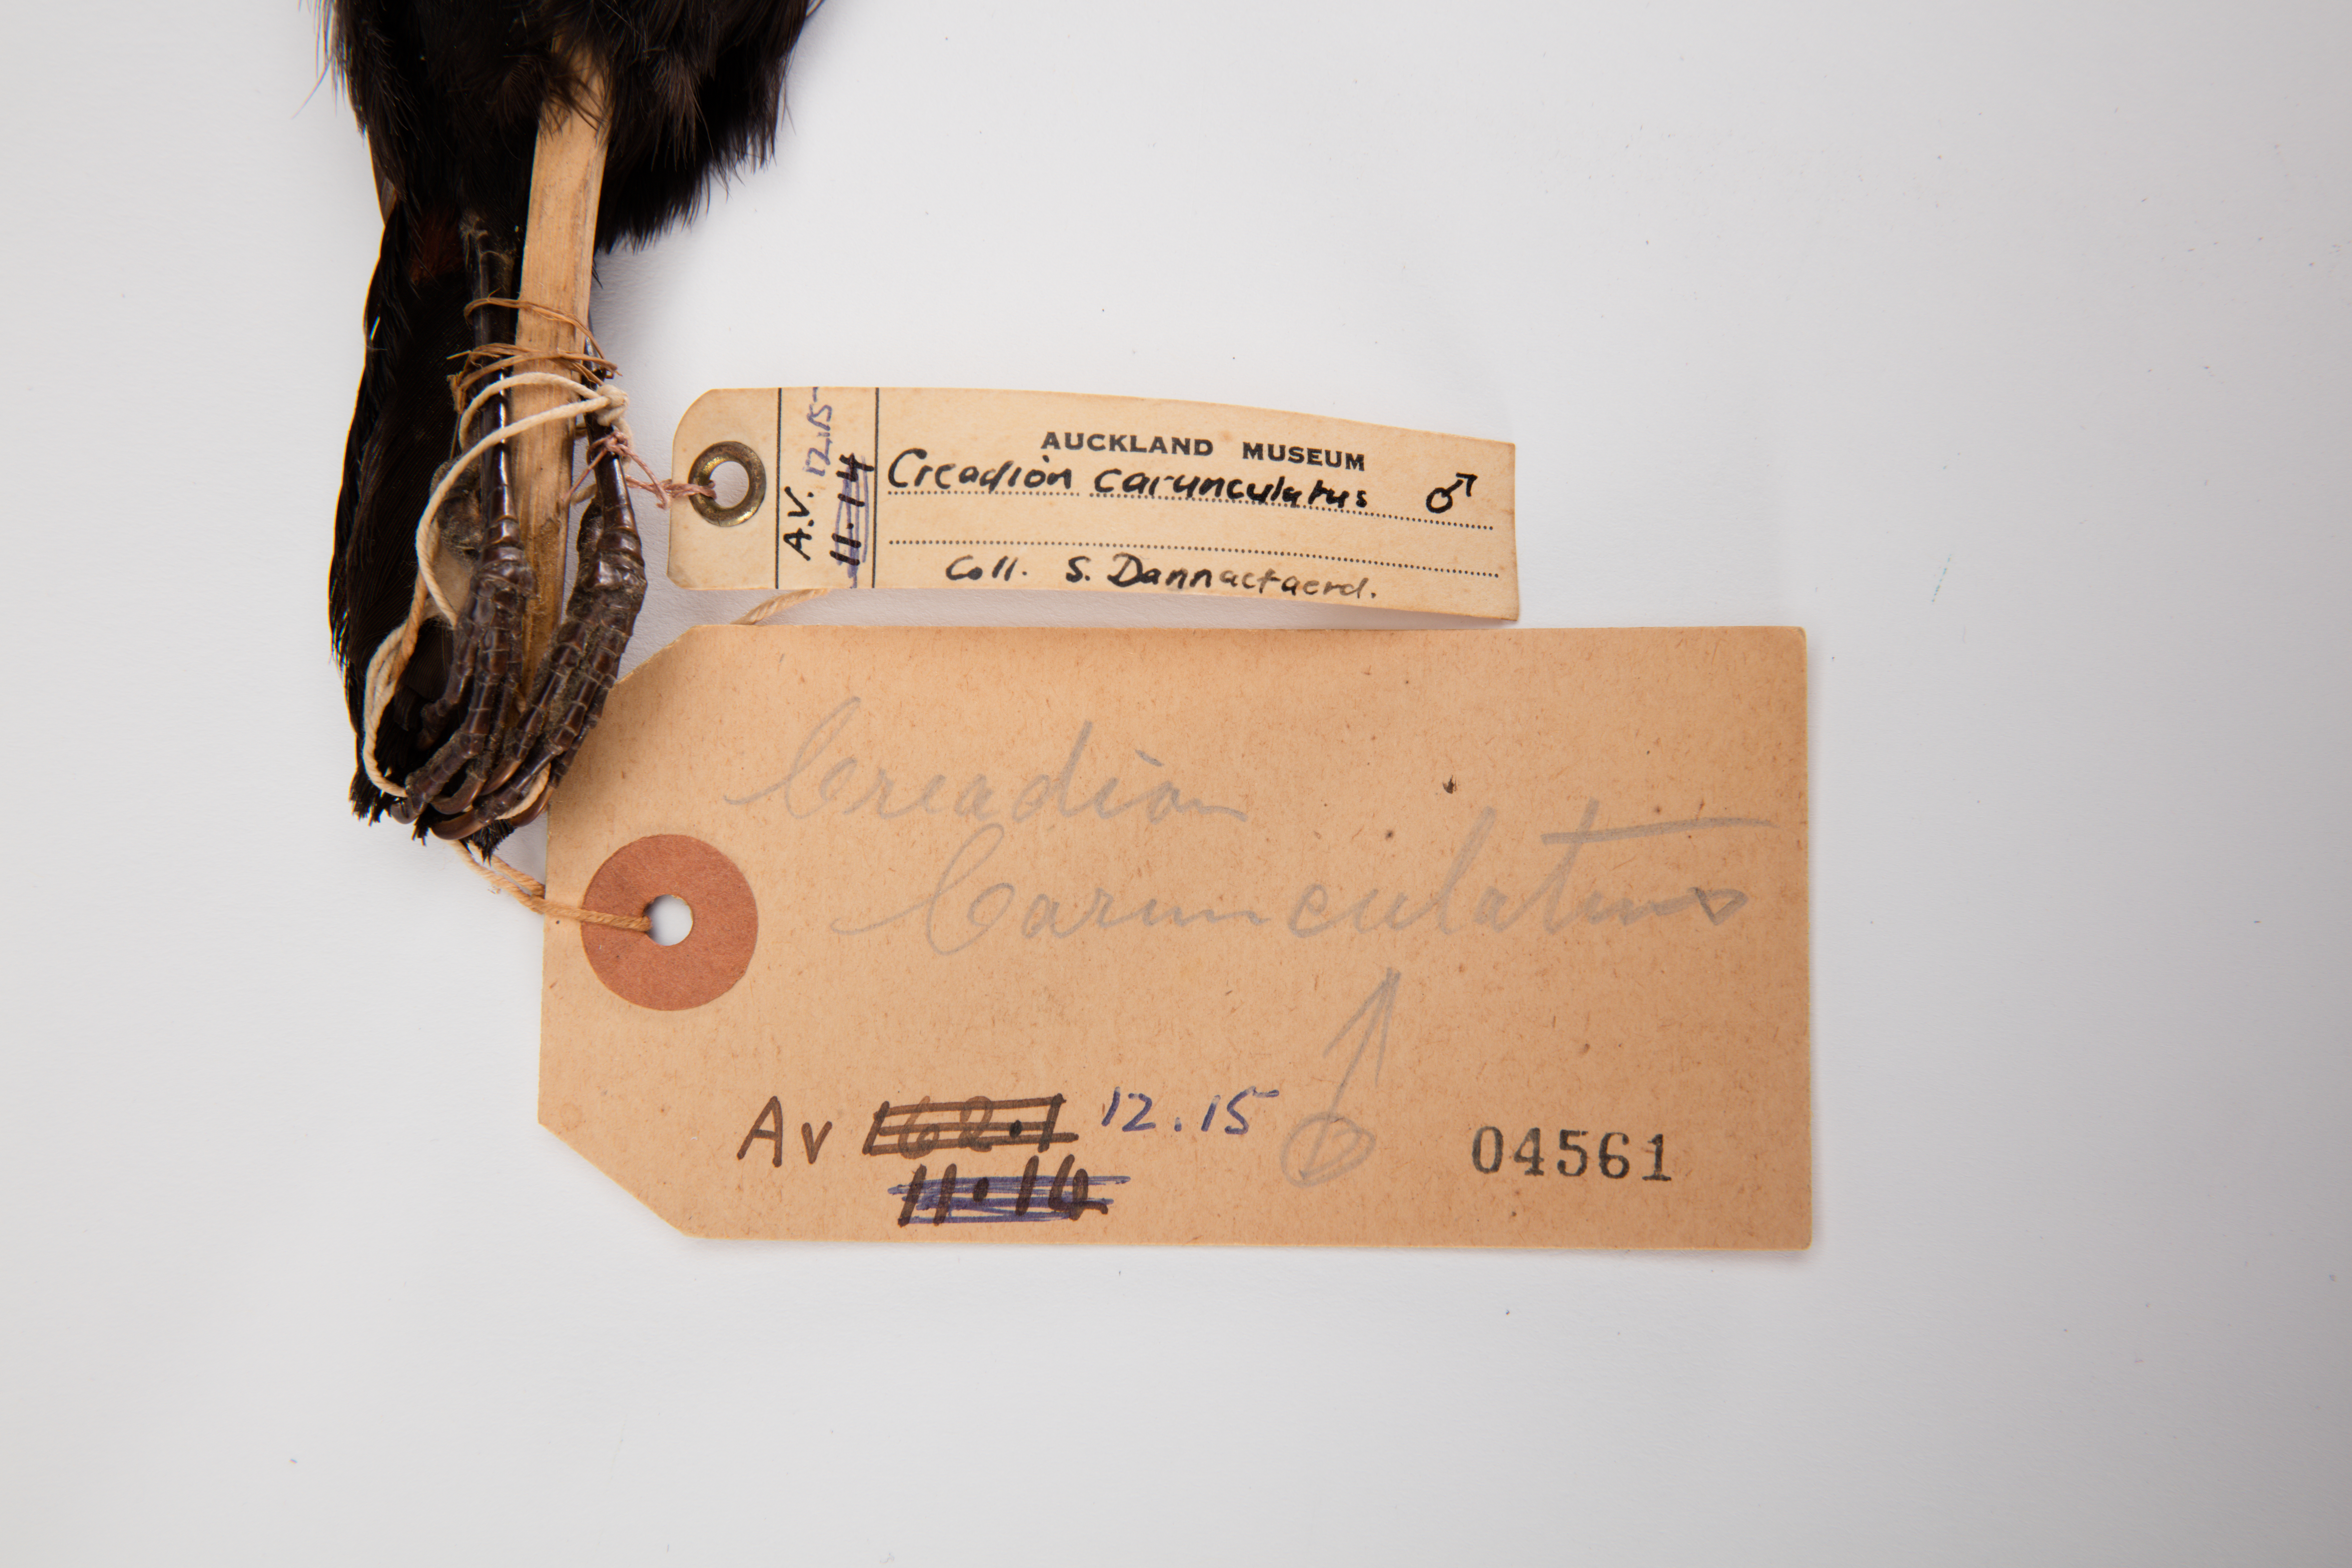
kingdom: Animalia
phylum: Chordata
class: Aves
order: Passeriformes
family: Callaeatidae
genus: Philesturnus
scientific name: Philesturnus carunculatus
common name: South island saddleback
